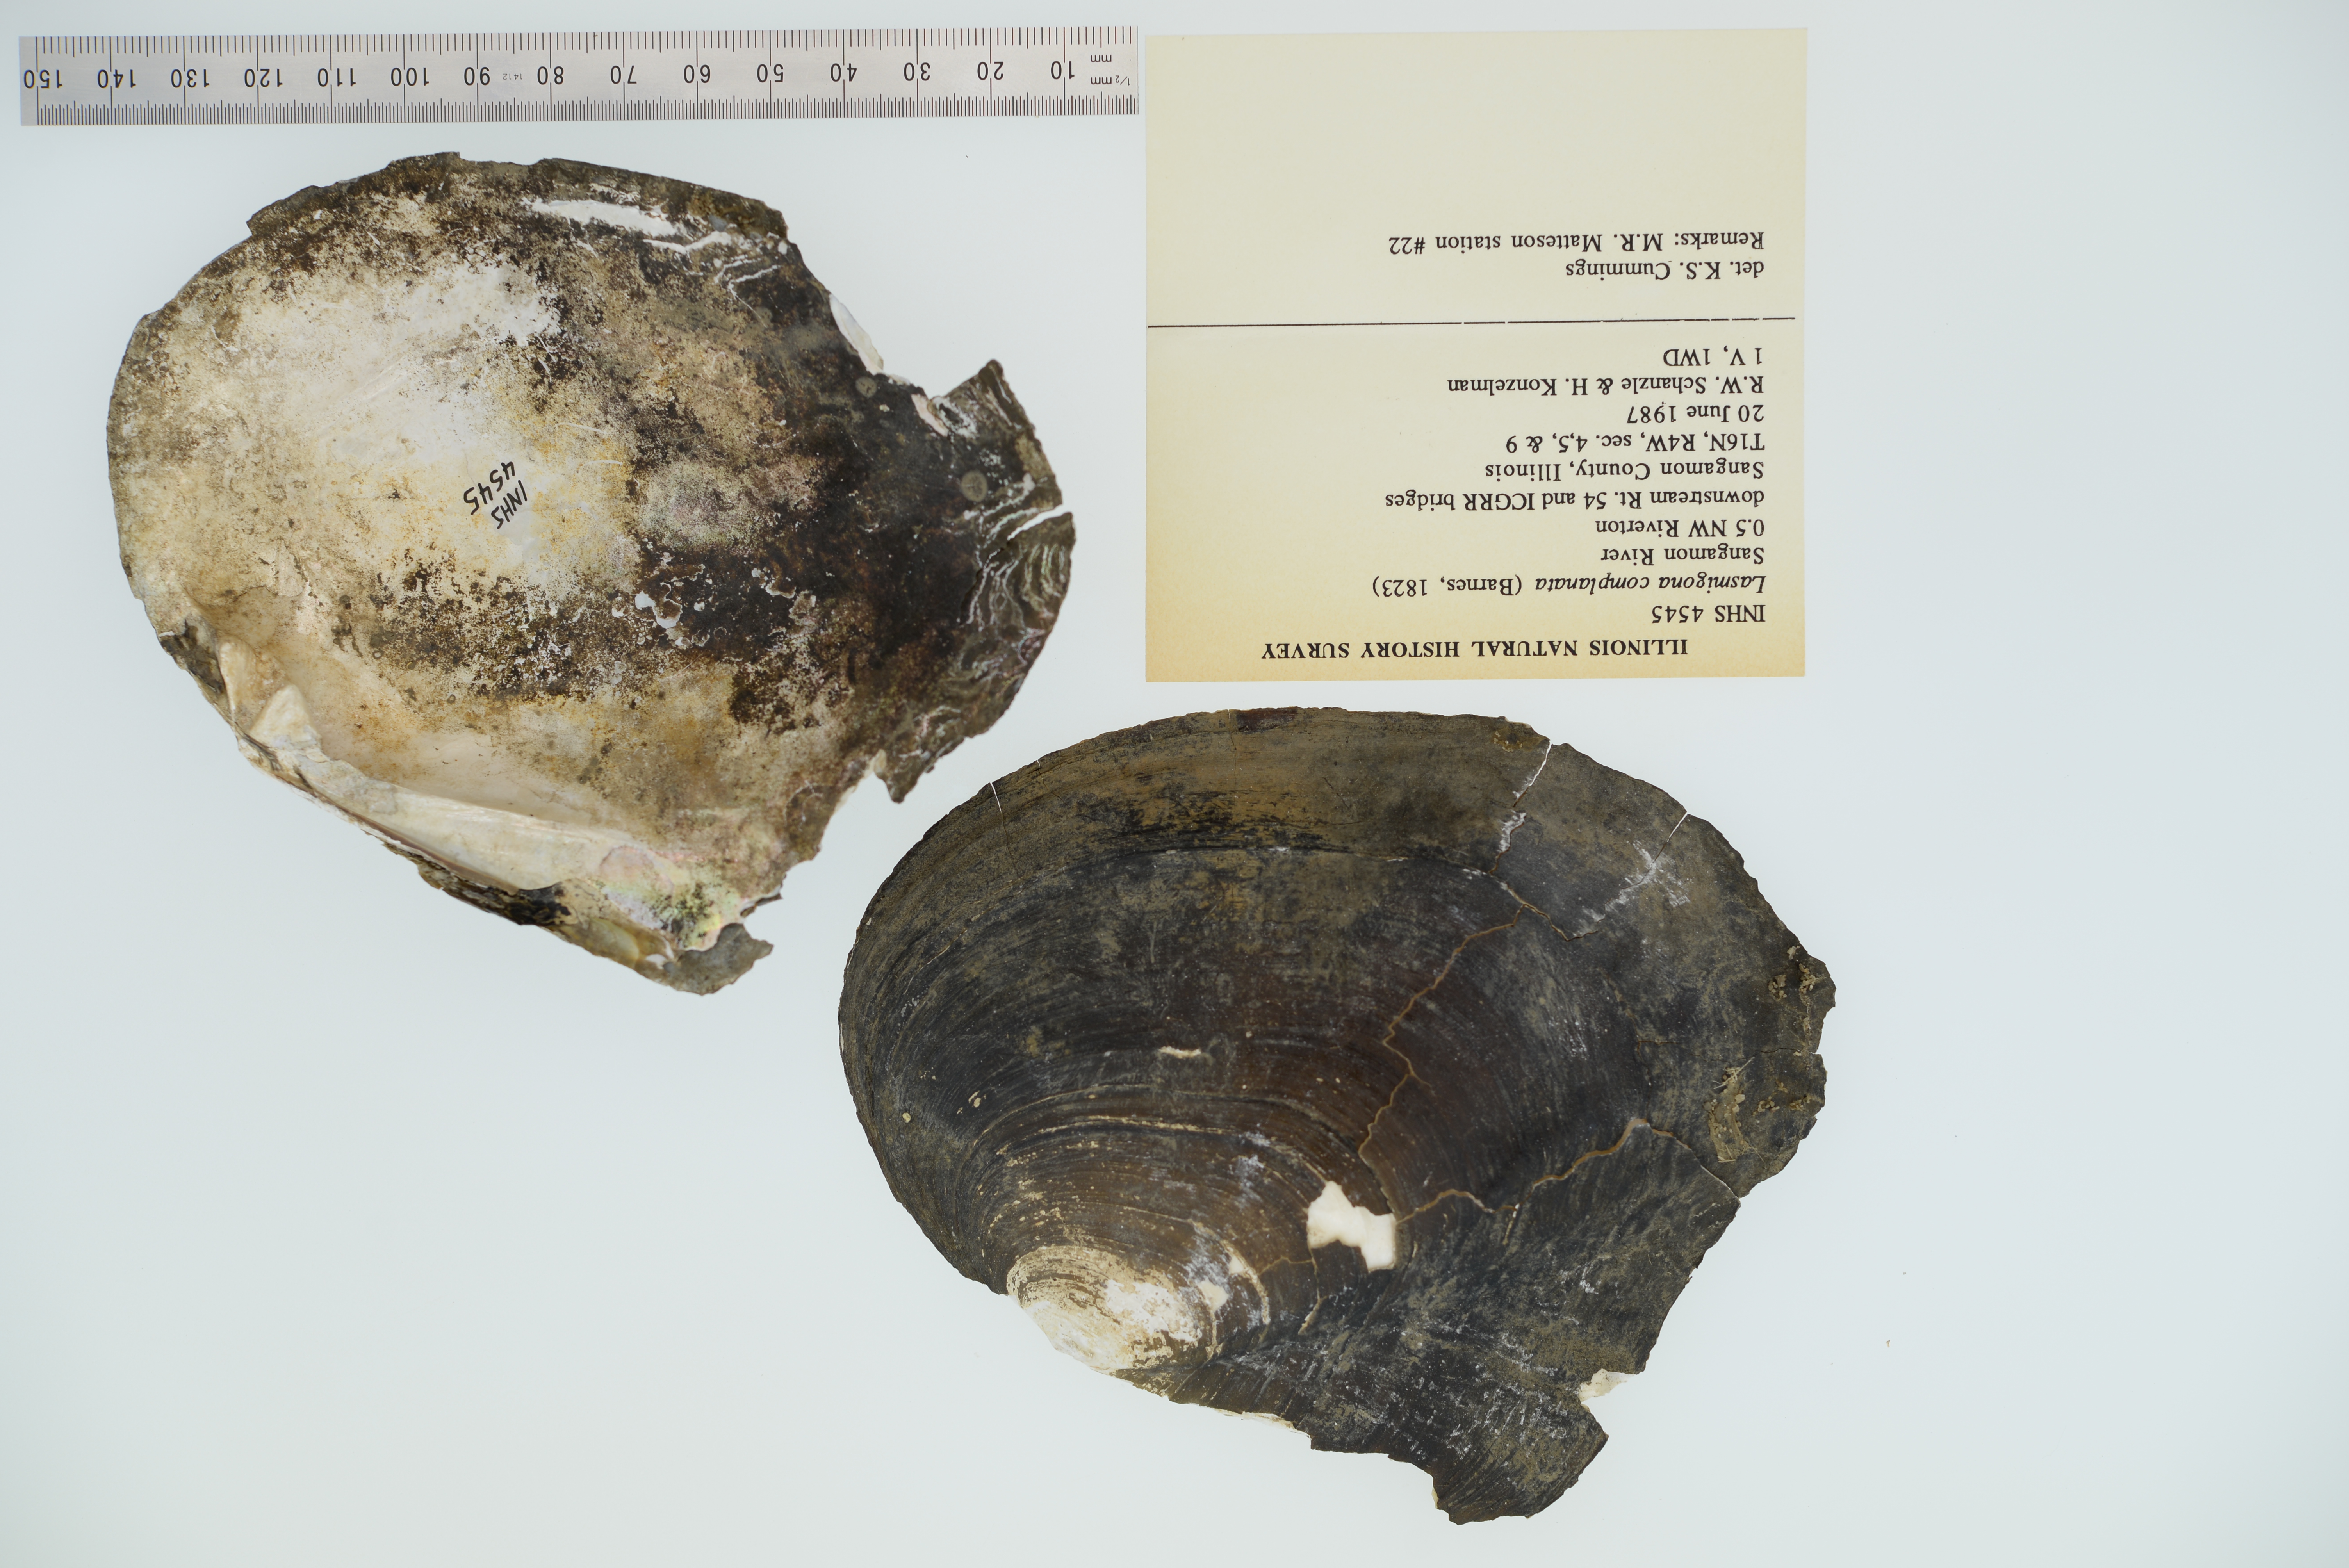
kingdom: Animalia
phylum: Mollusca
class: Bivalvia
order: Unionida
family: Unionidae
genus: Lasmigona
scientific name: Lasmigona complanata
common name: White heelsplitter
